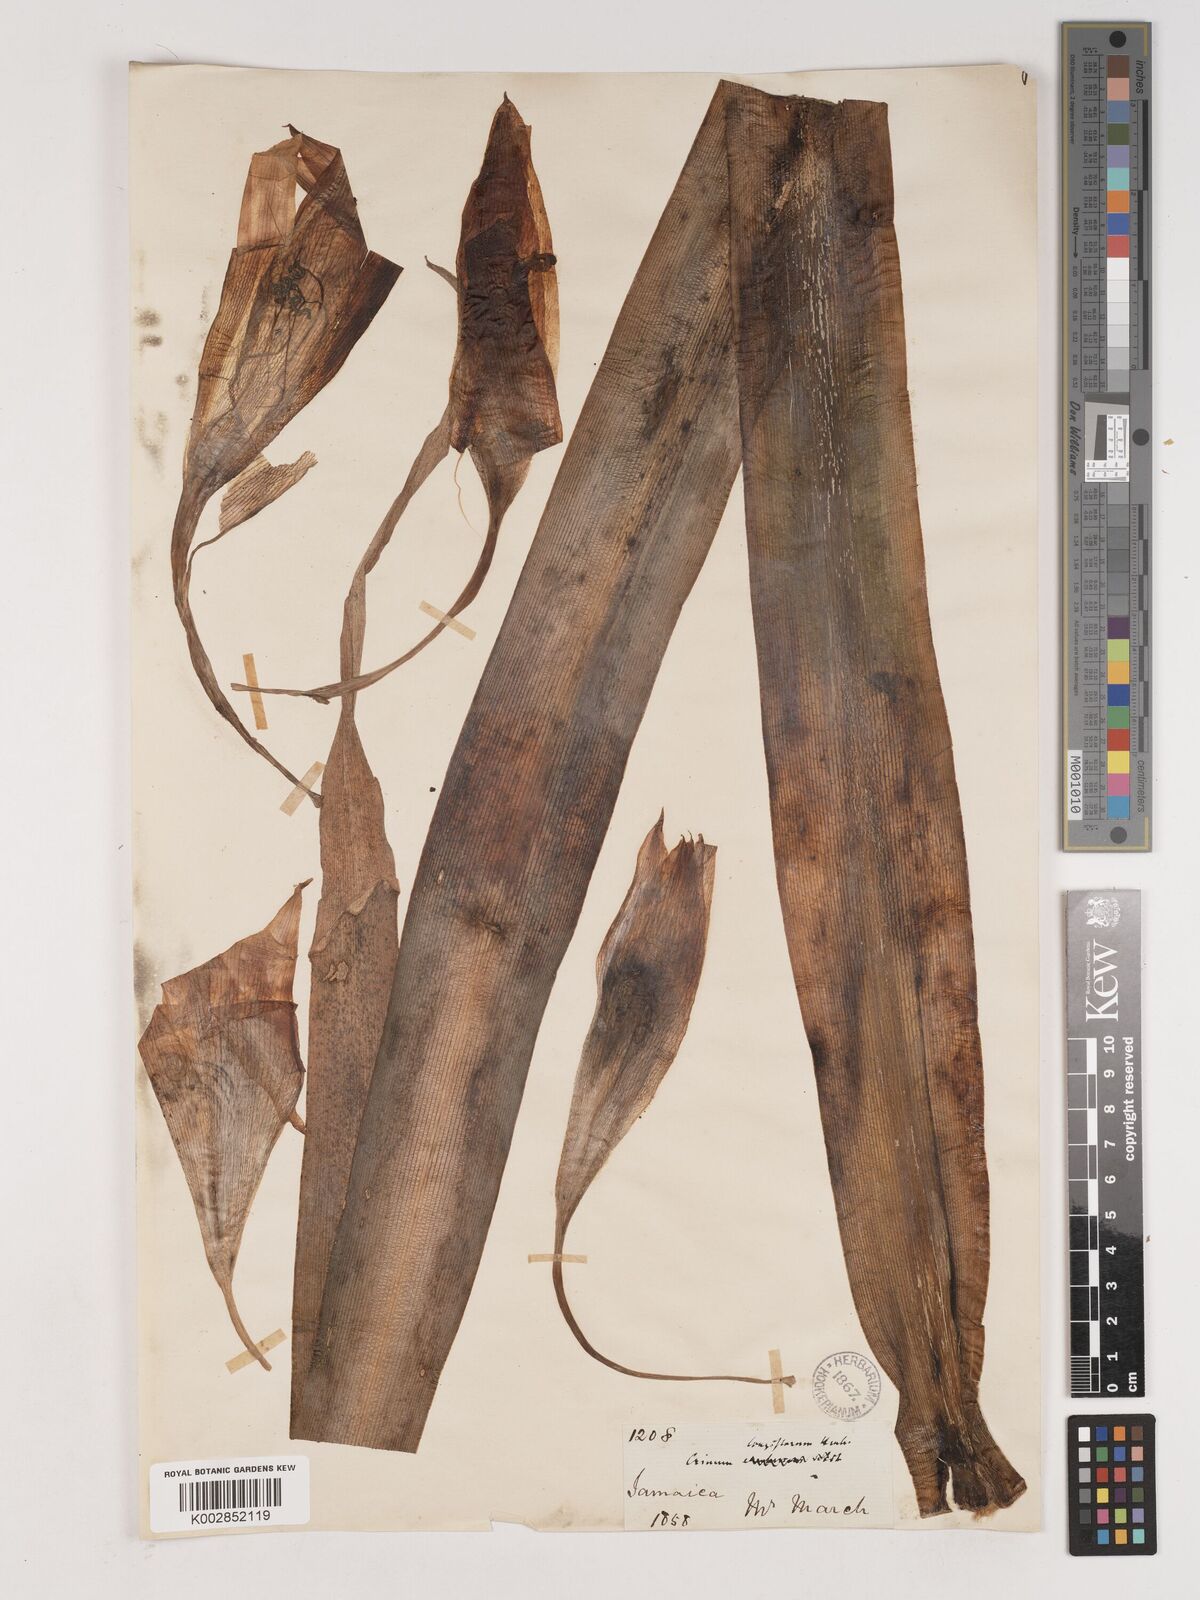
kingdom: Plantae
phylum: Tracheophyta
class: Liliopsida
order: Asparagales
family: Amaryllidaceae
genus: Crinum
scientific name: Crinum latifolium
